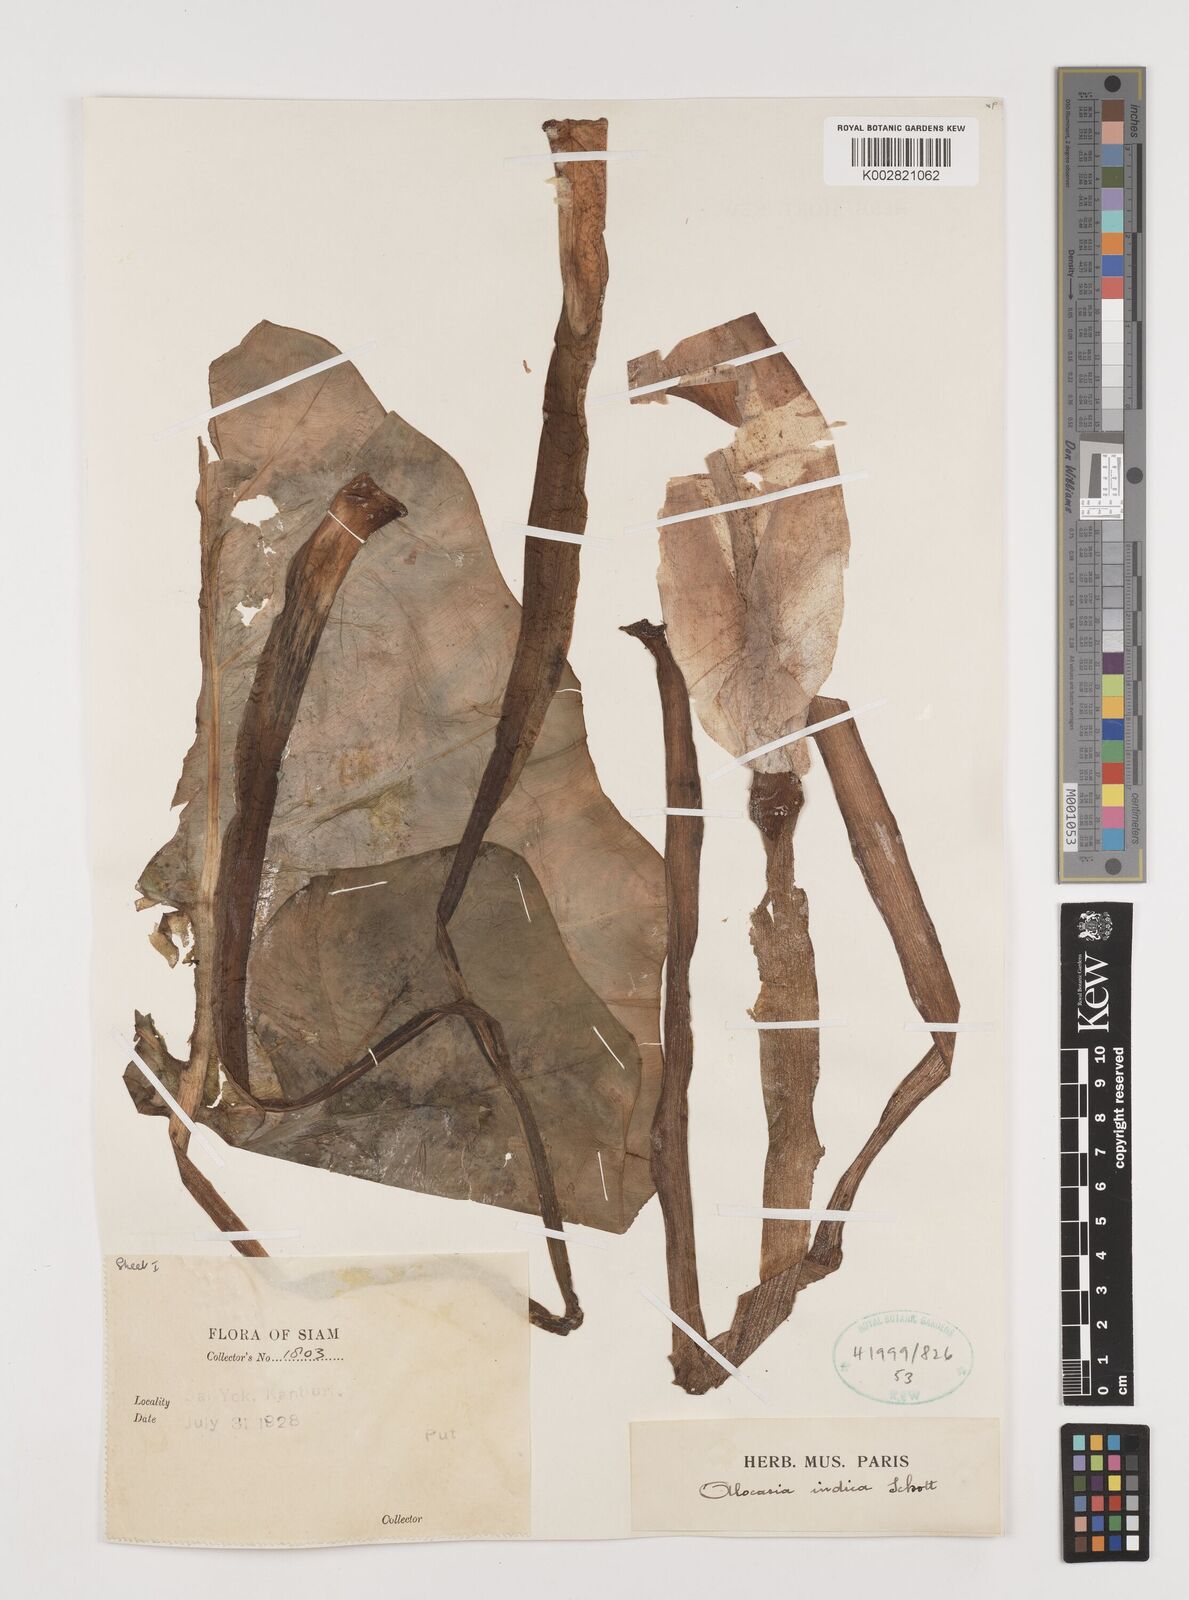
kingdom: Plantae
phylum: Tracheophyta
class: Liliopsida
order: Alismatales
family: Araceae
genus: Alocasia
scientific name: Alocasia macrorrhizos
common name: Giant taro
